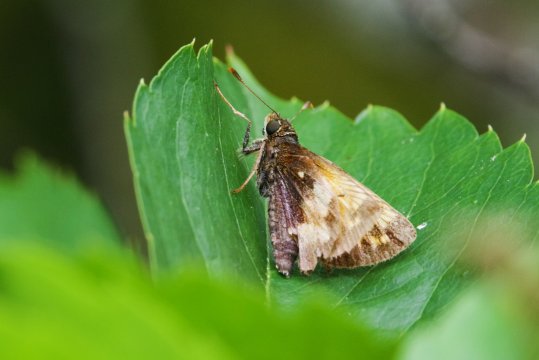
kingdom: Animalia
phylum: Arthropoda
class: Insecta
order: Lepidoptera
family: Hesperiidae
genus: Lon
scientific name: Lon hobomok
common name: Hobomok Skipper
